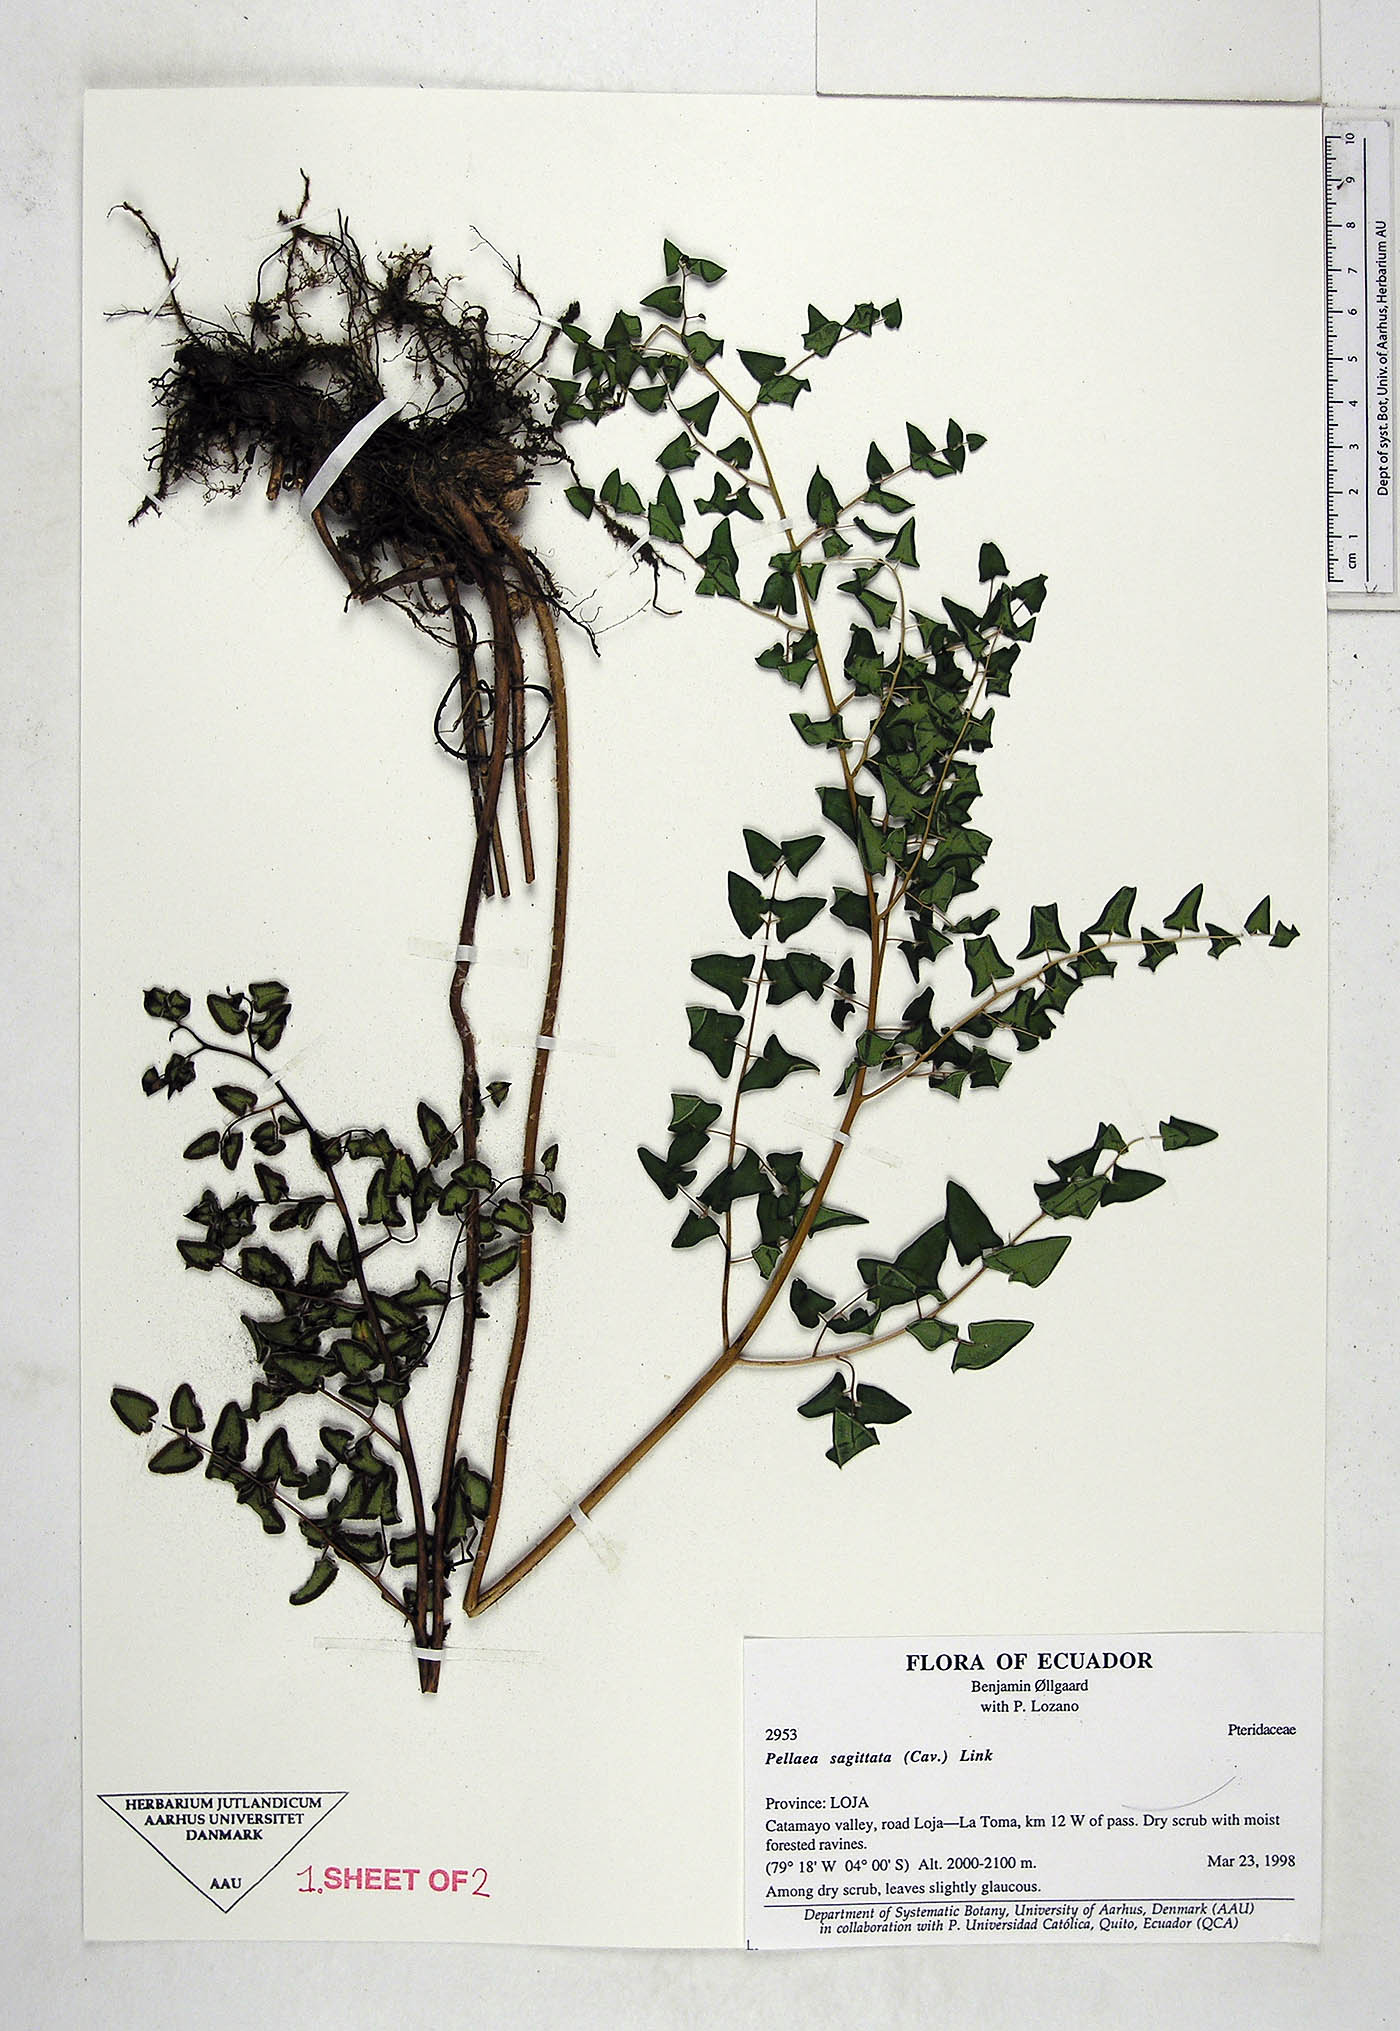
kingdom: Plantae
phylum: Tracheophyta
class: Polypodiopsida
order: Polypodiales
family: Pteridaceae
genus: Pellaea
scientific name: Pellaea sagittata
